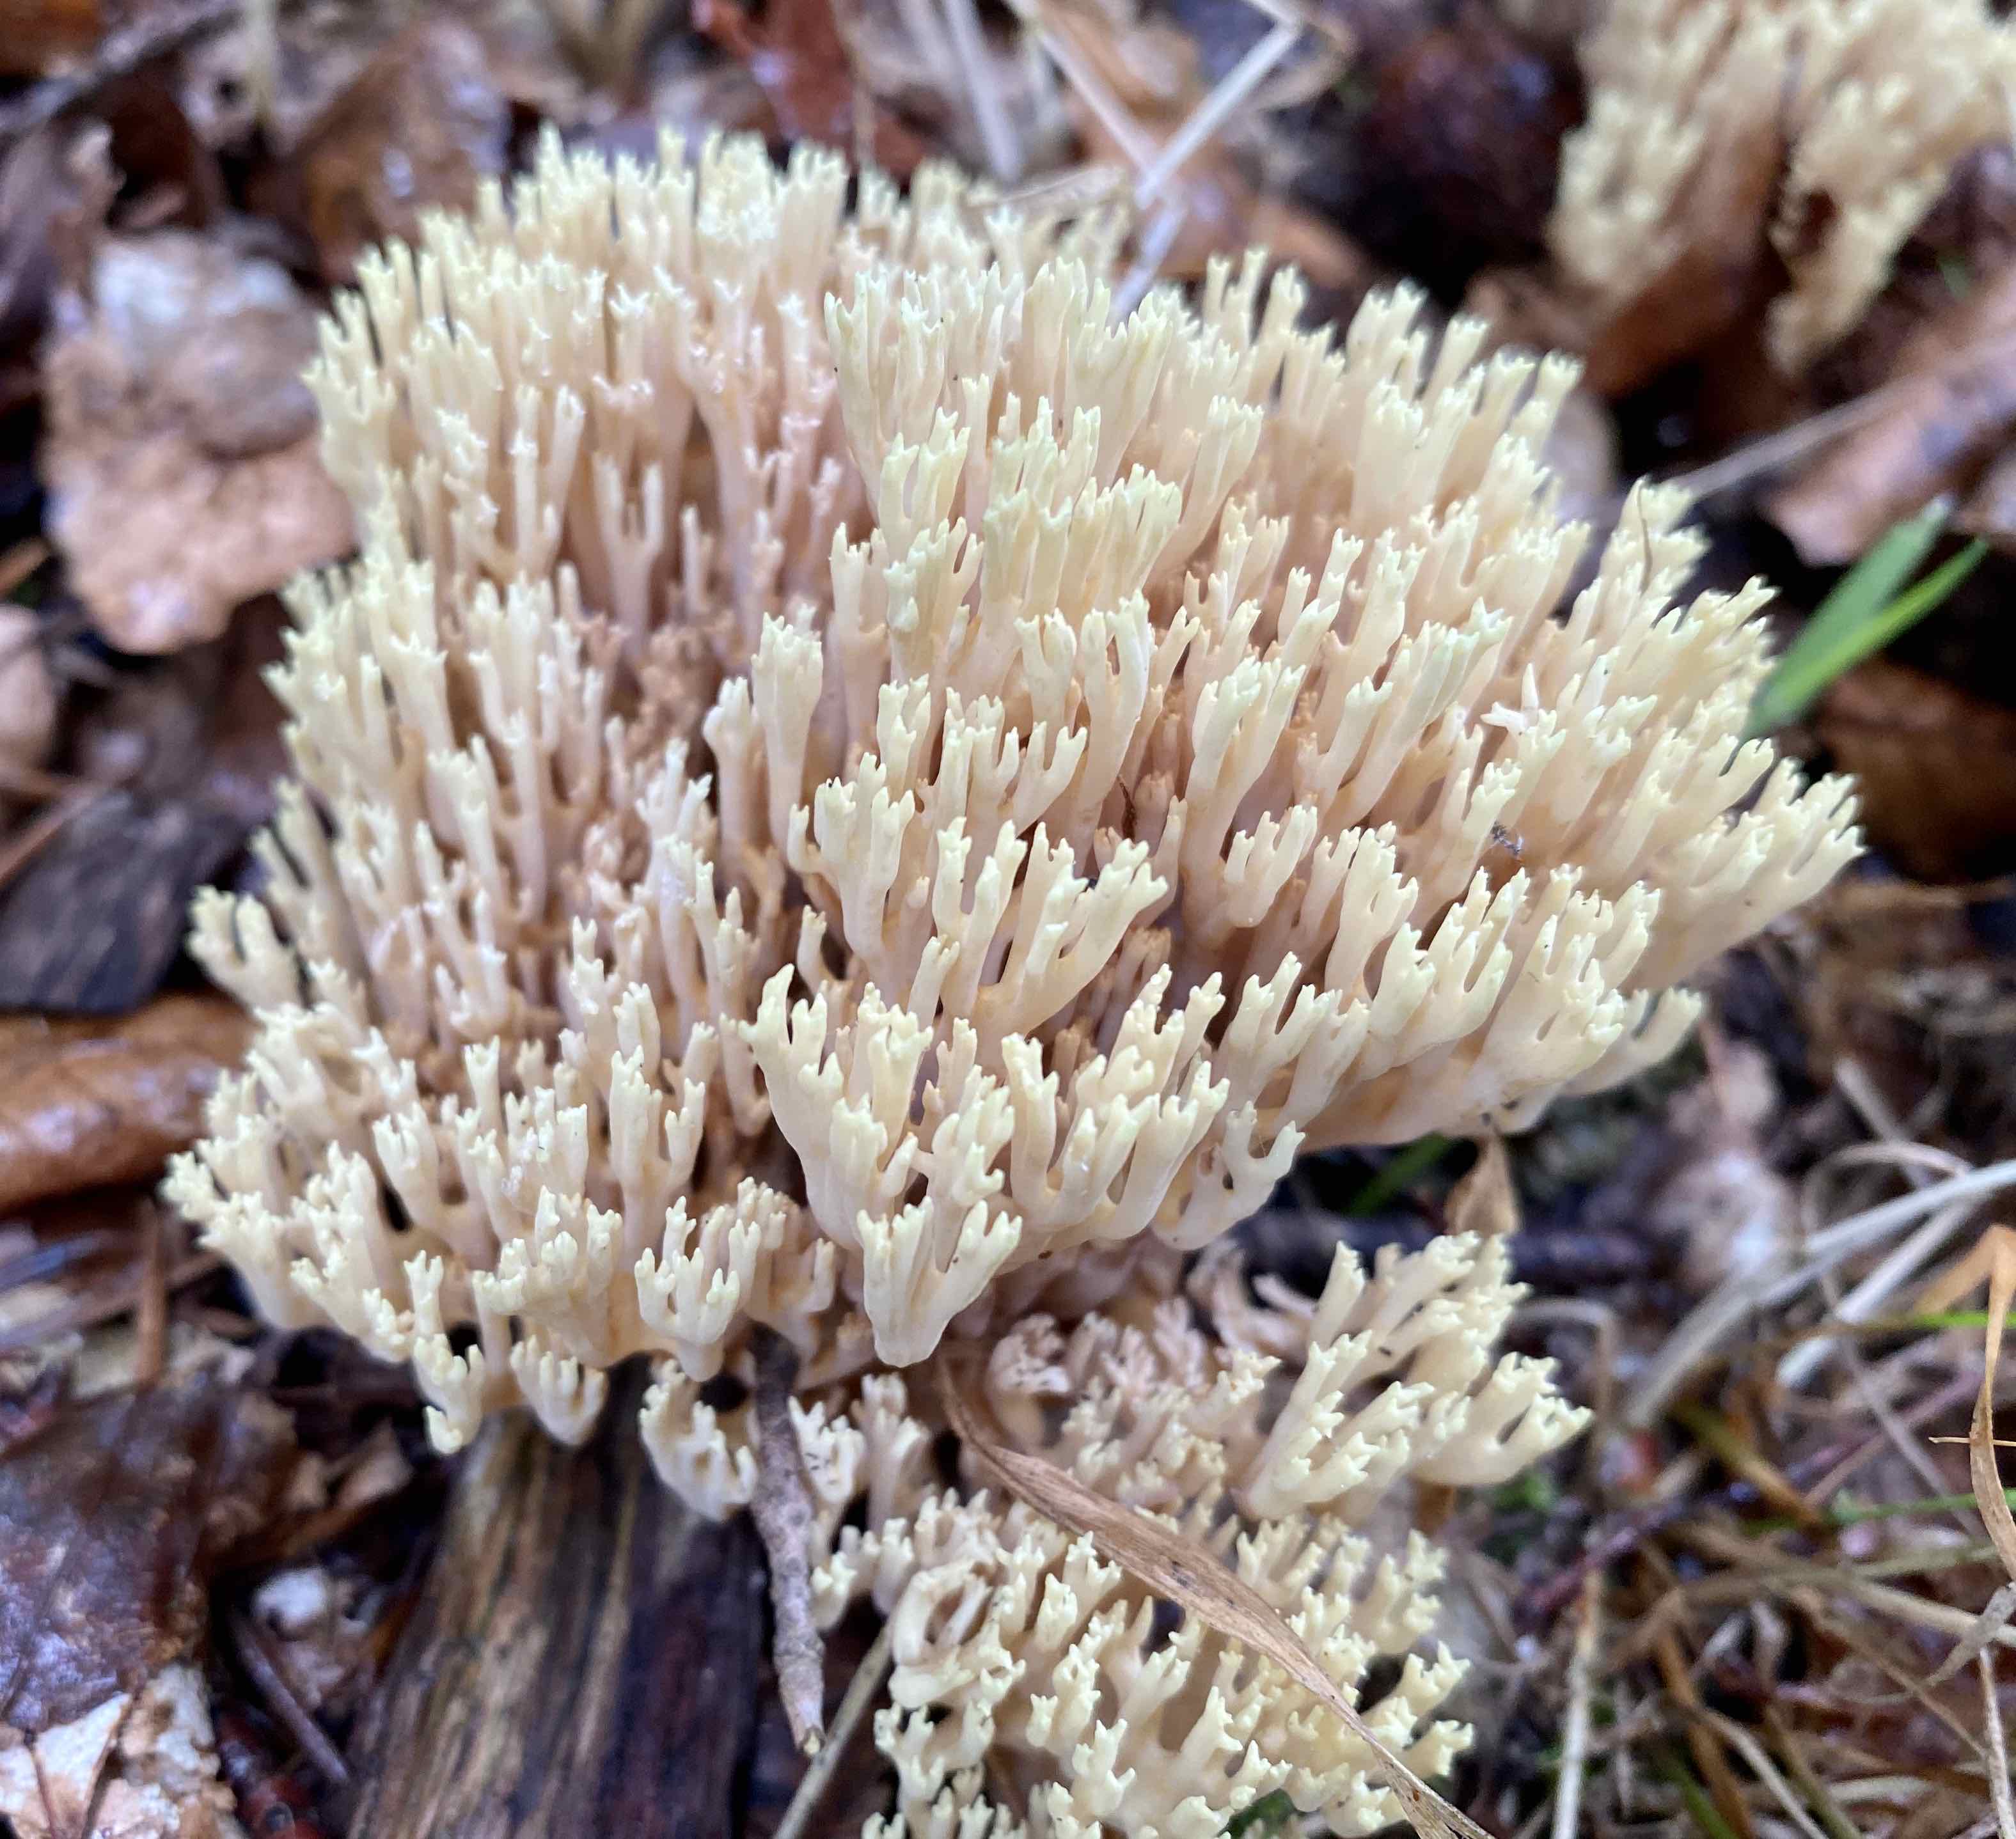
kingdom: Fungi
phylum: Basidiomycota
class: Agaricomycetes
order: Gomphales
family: Gomphaceae
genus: Ramaria
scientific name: Ramaria stricta
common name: rank koralsvamp
